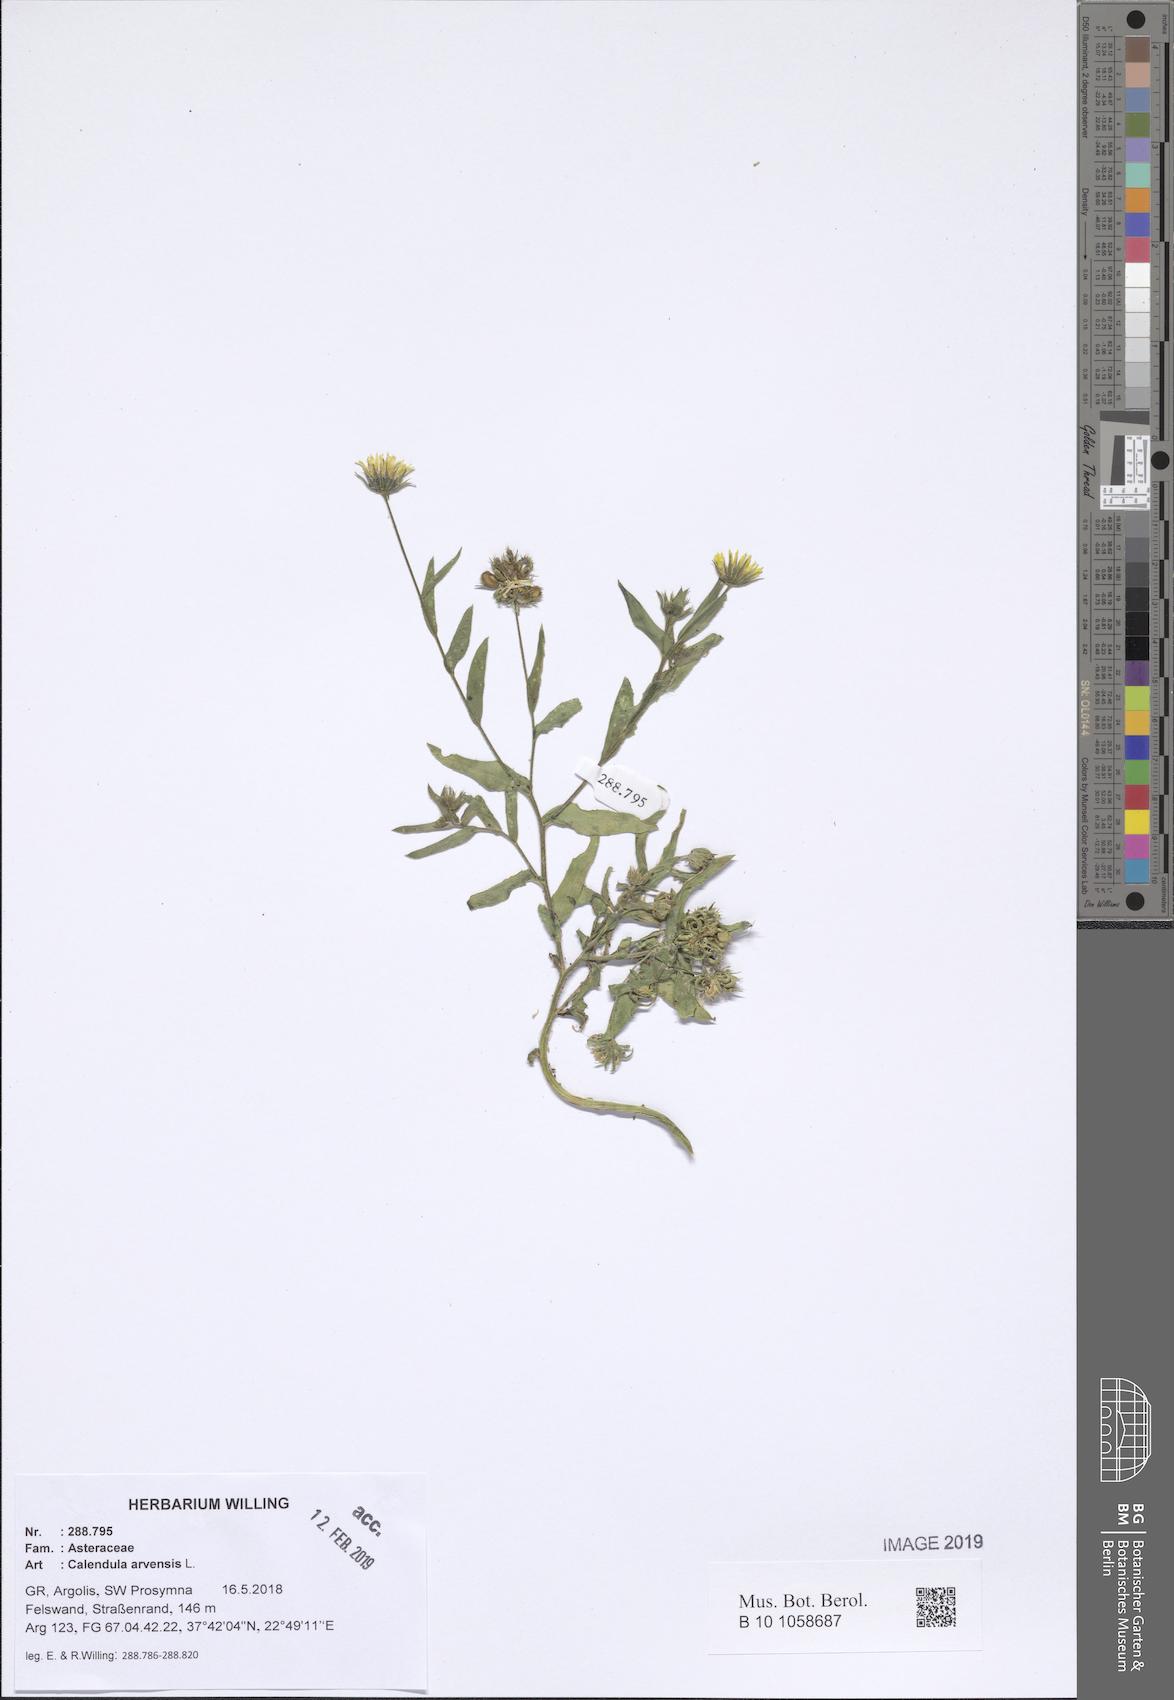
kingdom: Plantae
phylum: Tracheophyta
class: Magnoliopsida
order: Asterales
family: Asteraceae
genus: Calendula
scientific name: Calendula arvensis
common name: Field marigold
